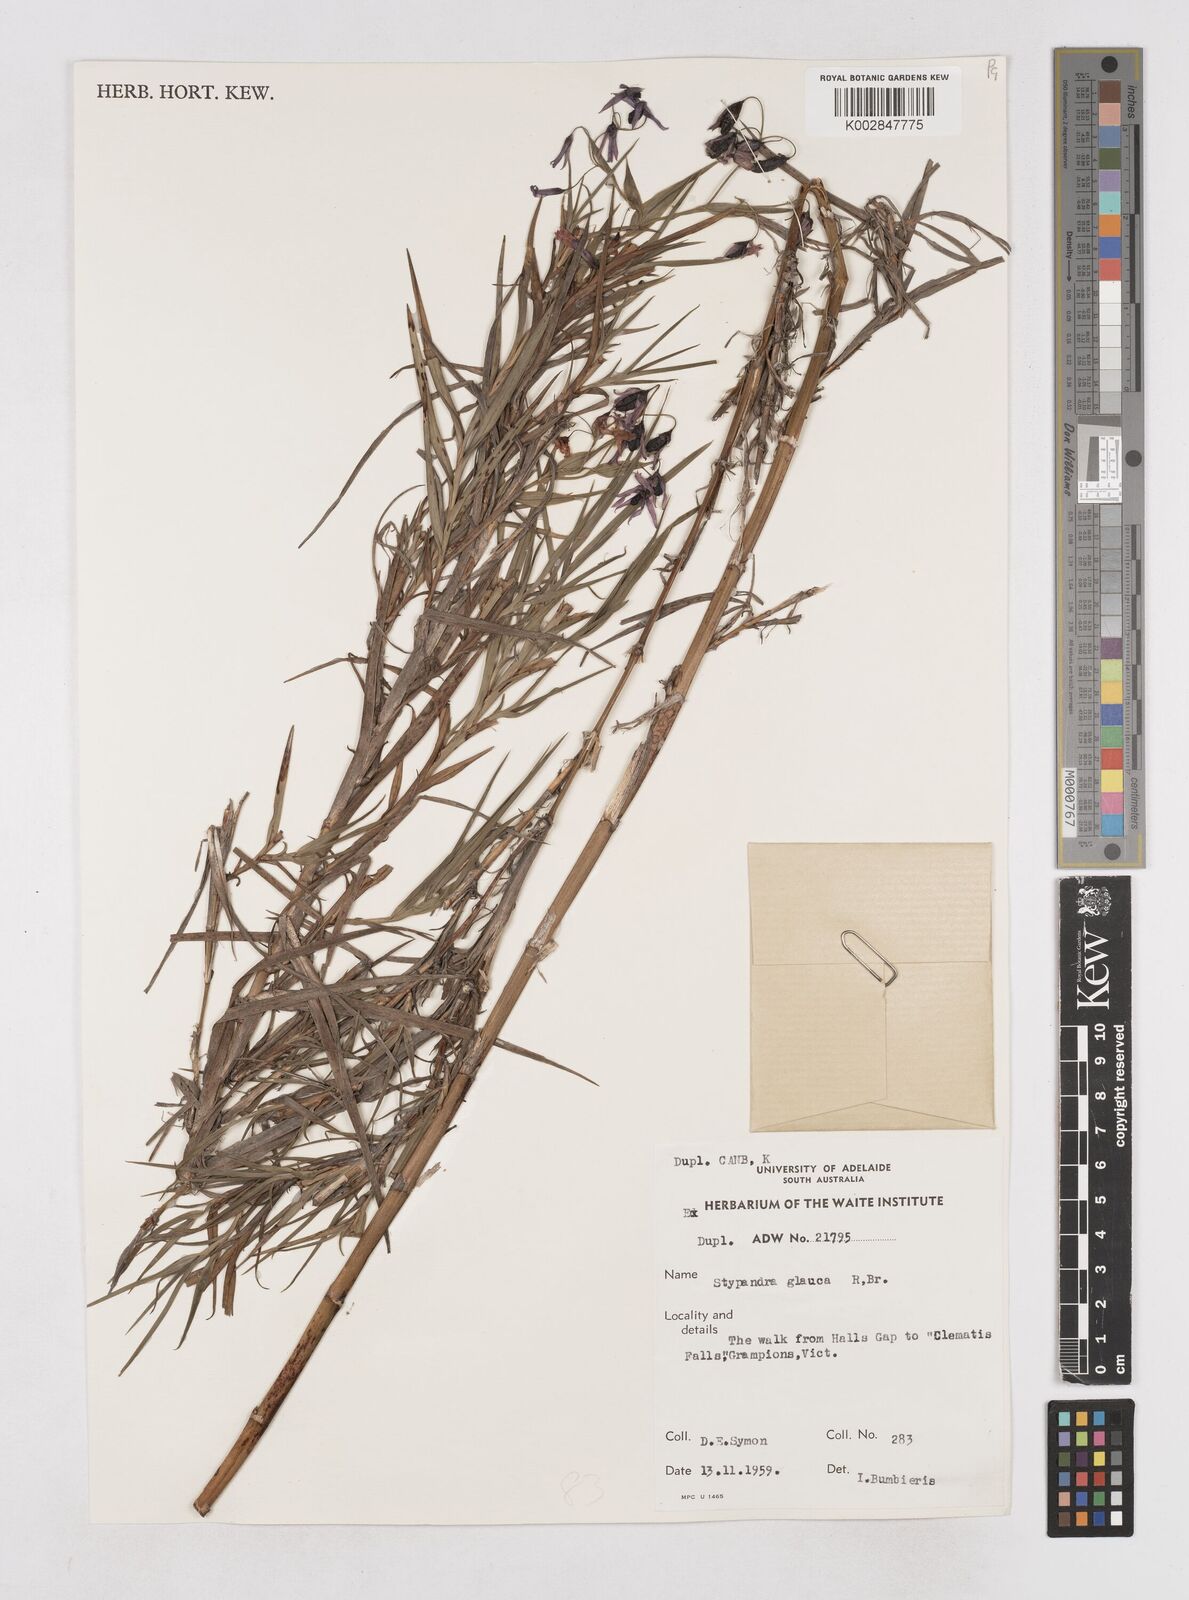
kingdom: Plantae
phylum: Tracheophyta
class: Liliopsida
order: Asparagales
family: Asphodelaceae
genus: Stypandra
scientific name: Stypandra glauca
